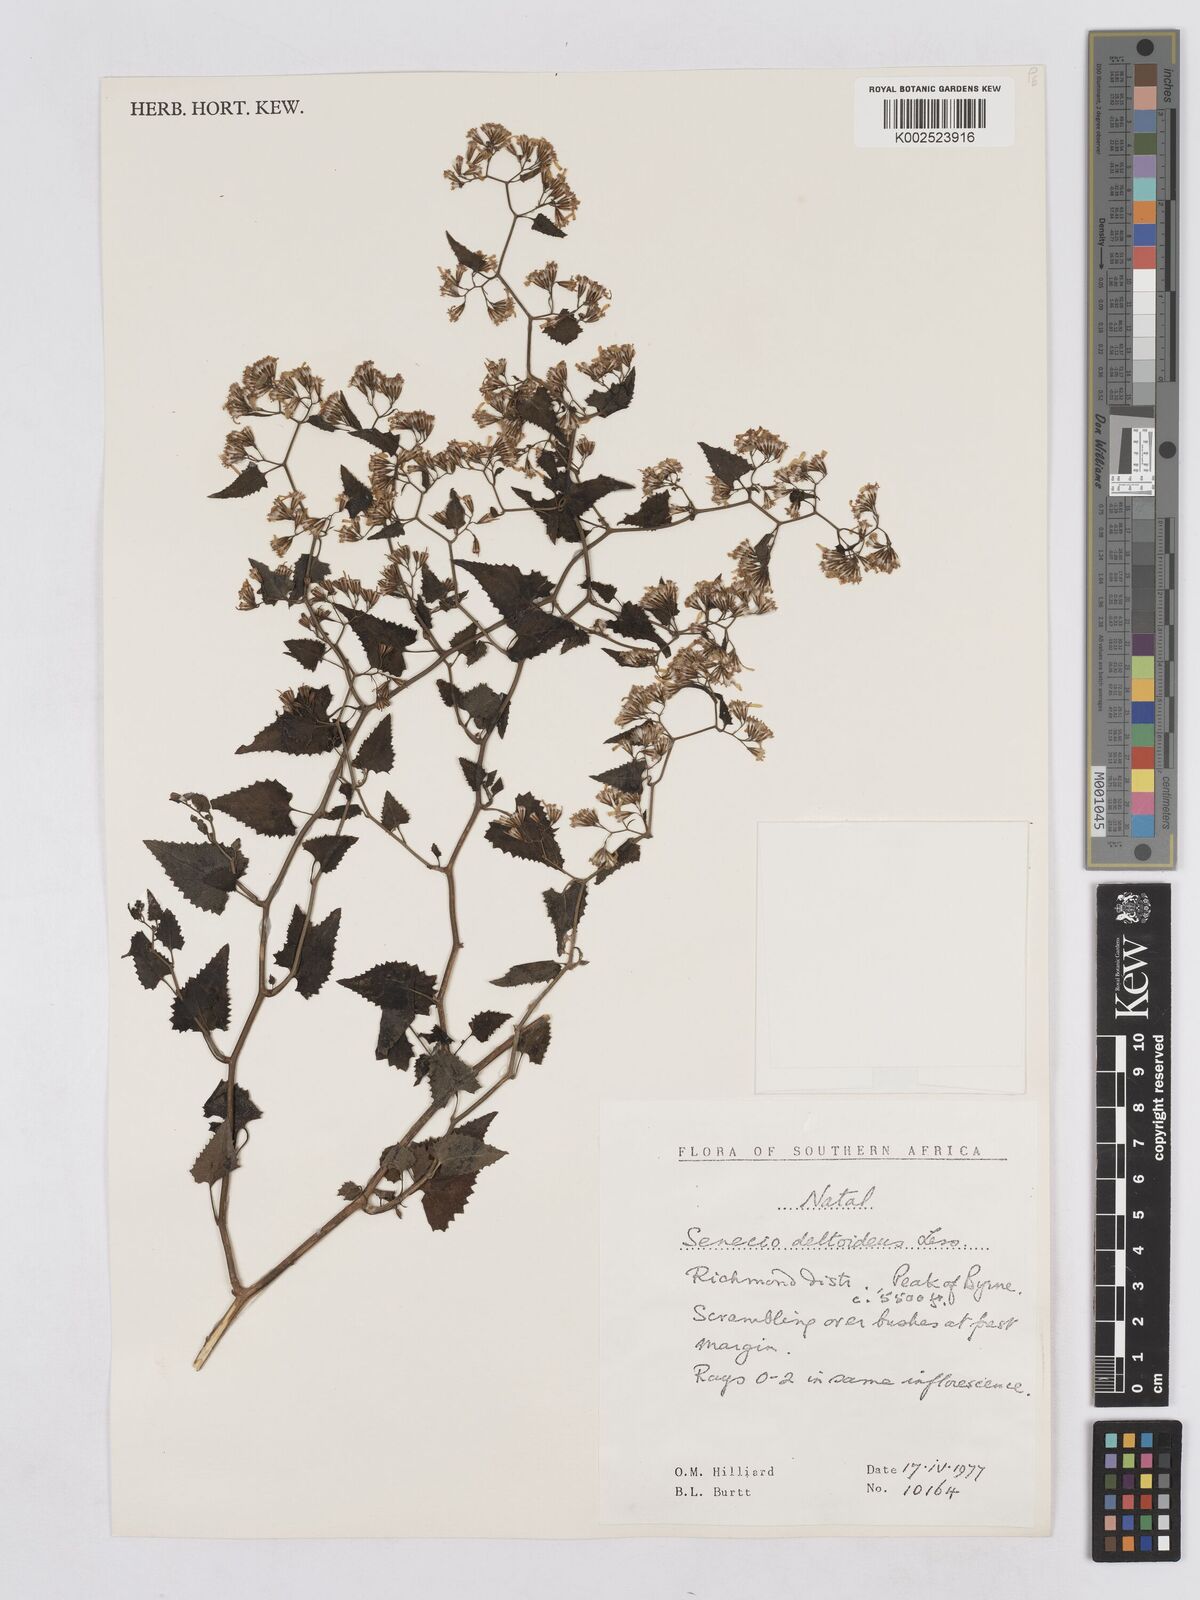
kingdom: Plantae
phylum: Tracheophyta
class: Magnoliopsida
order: Asterales
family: Asteraceae
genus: Senecio
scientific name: Senecio deltoideus
